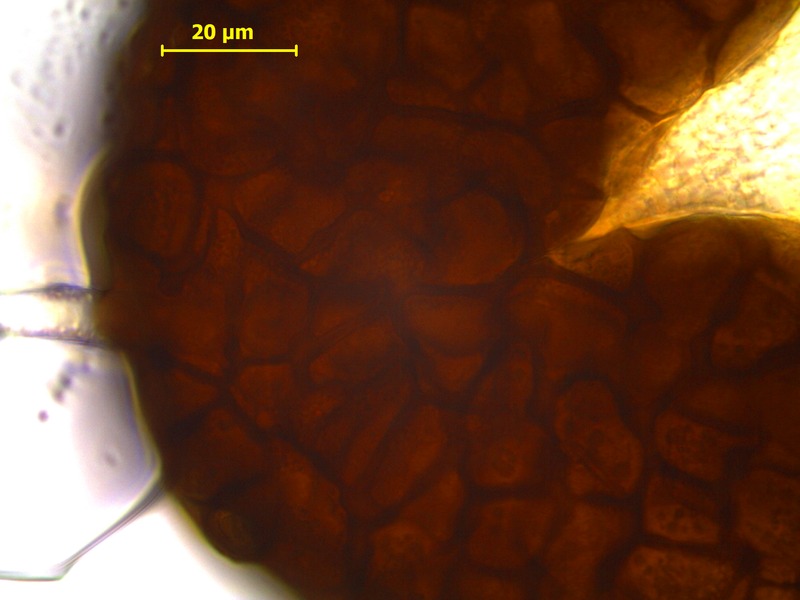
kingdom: Fungi
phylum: Ascomycota
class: Leotiomycetes
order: Helotiales
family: Erysiphaceae
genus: Erysiphe
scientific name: Erysiphe pisi
